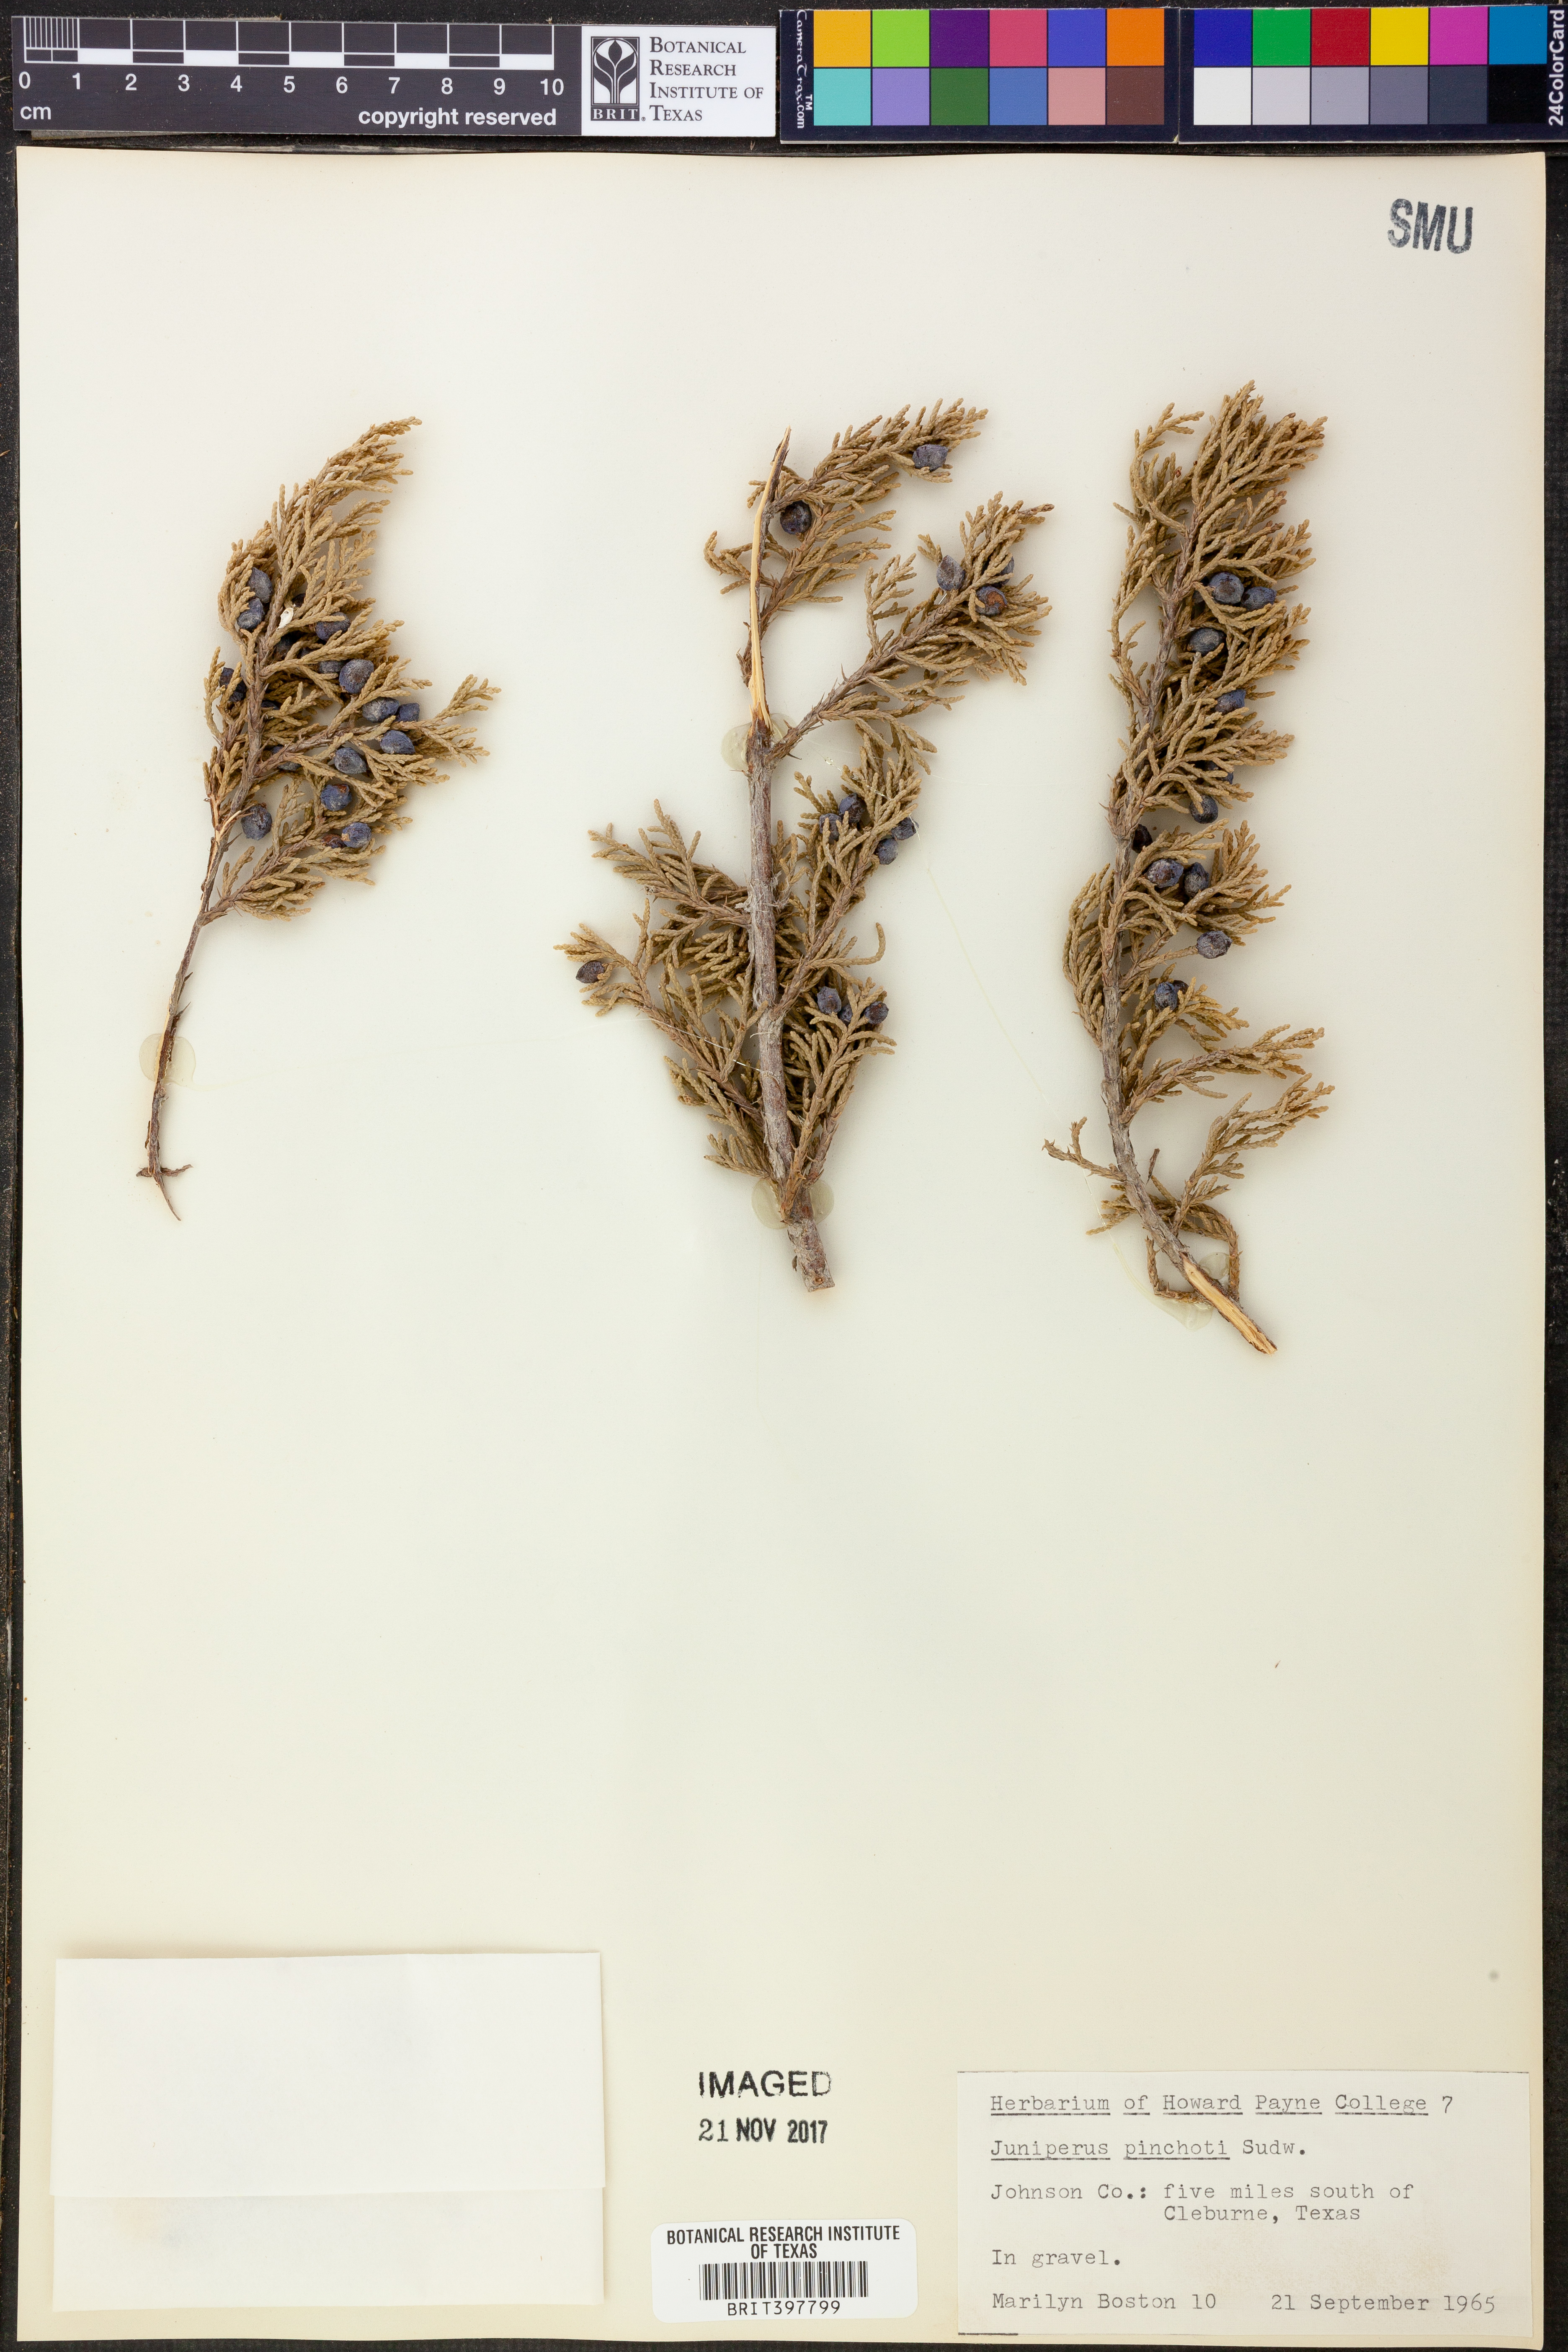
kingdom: Plantae
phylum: Tracheophyta
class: Pinopsida
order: Pinales
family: Cupressaceae
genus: Juniperus
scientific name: Juniperus pinchotii
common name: Pinchot juniper
